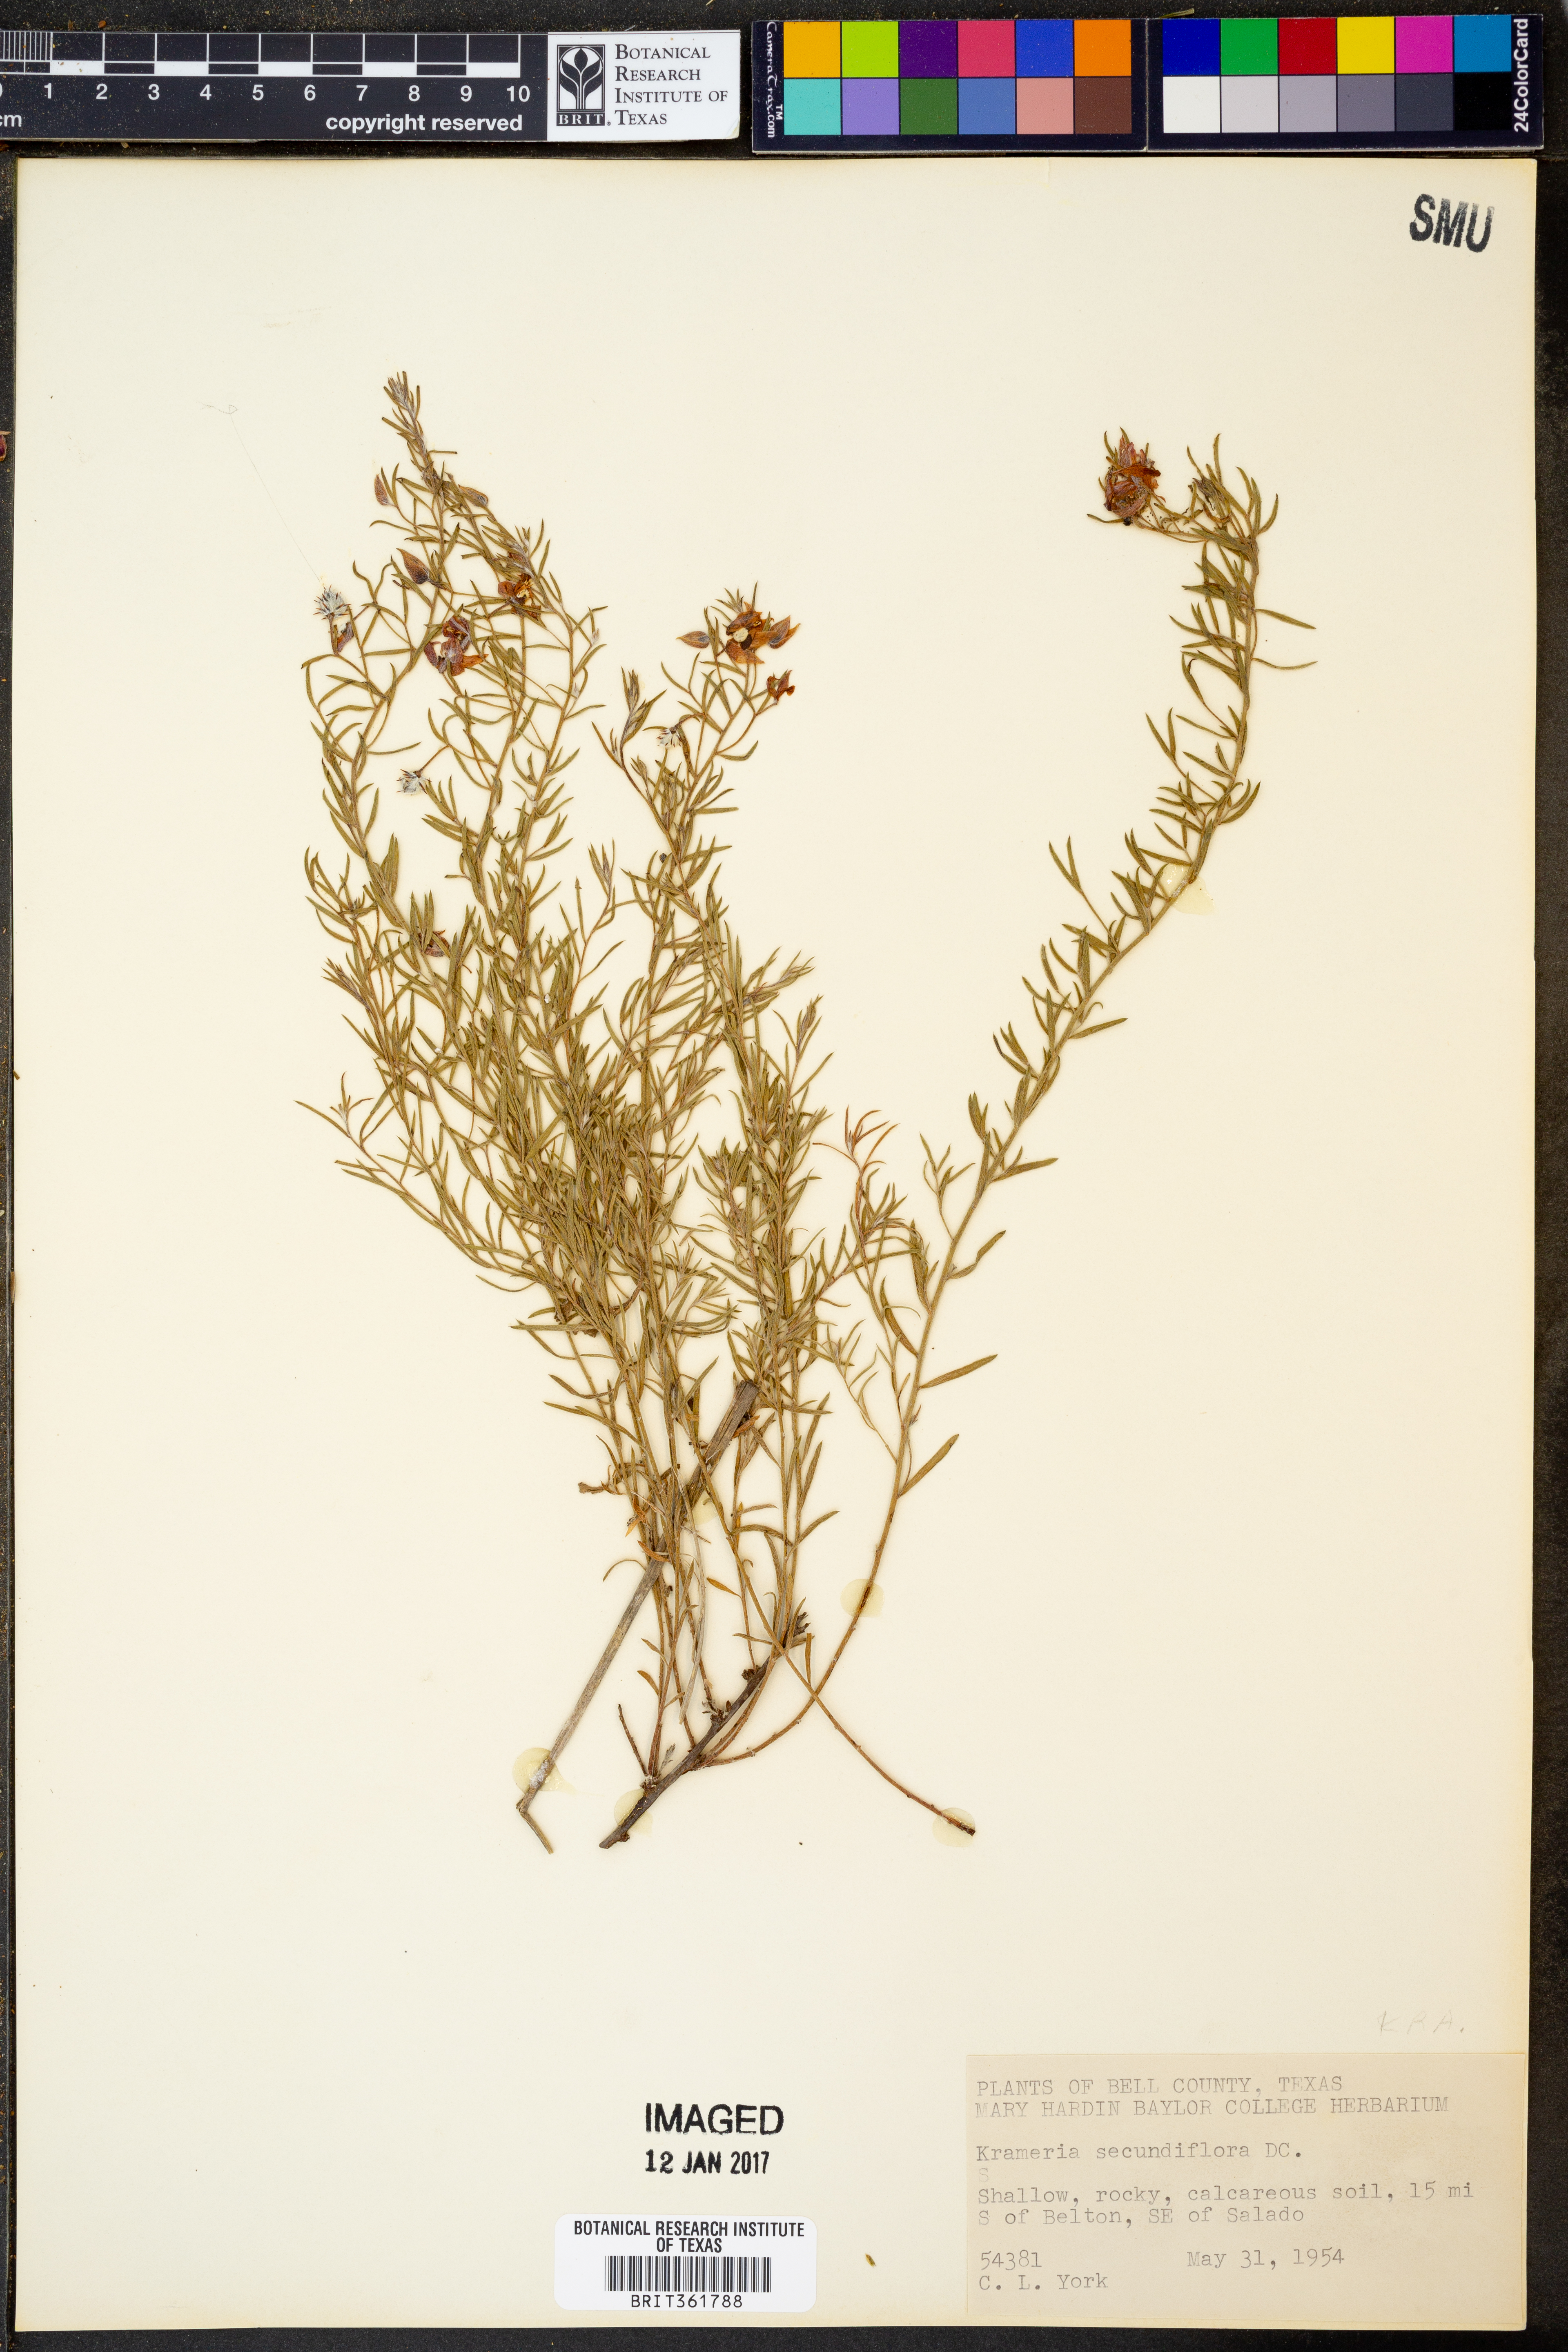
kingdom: Plantae
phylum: Tracheophyta
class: Magnoliopsida
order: Zygophyllales
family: Krameriaceae
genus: Krameria
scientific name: Krameria secundiflora
